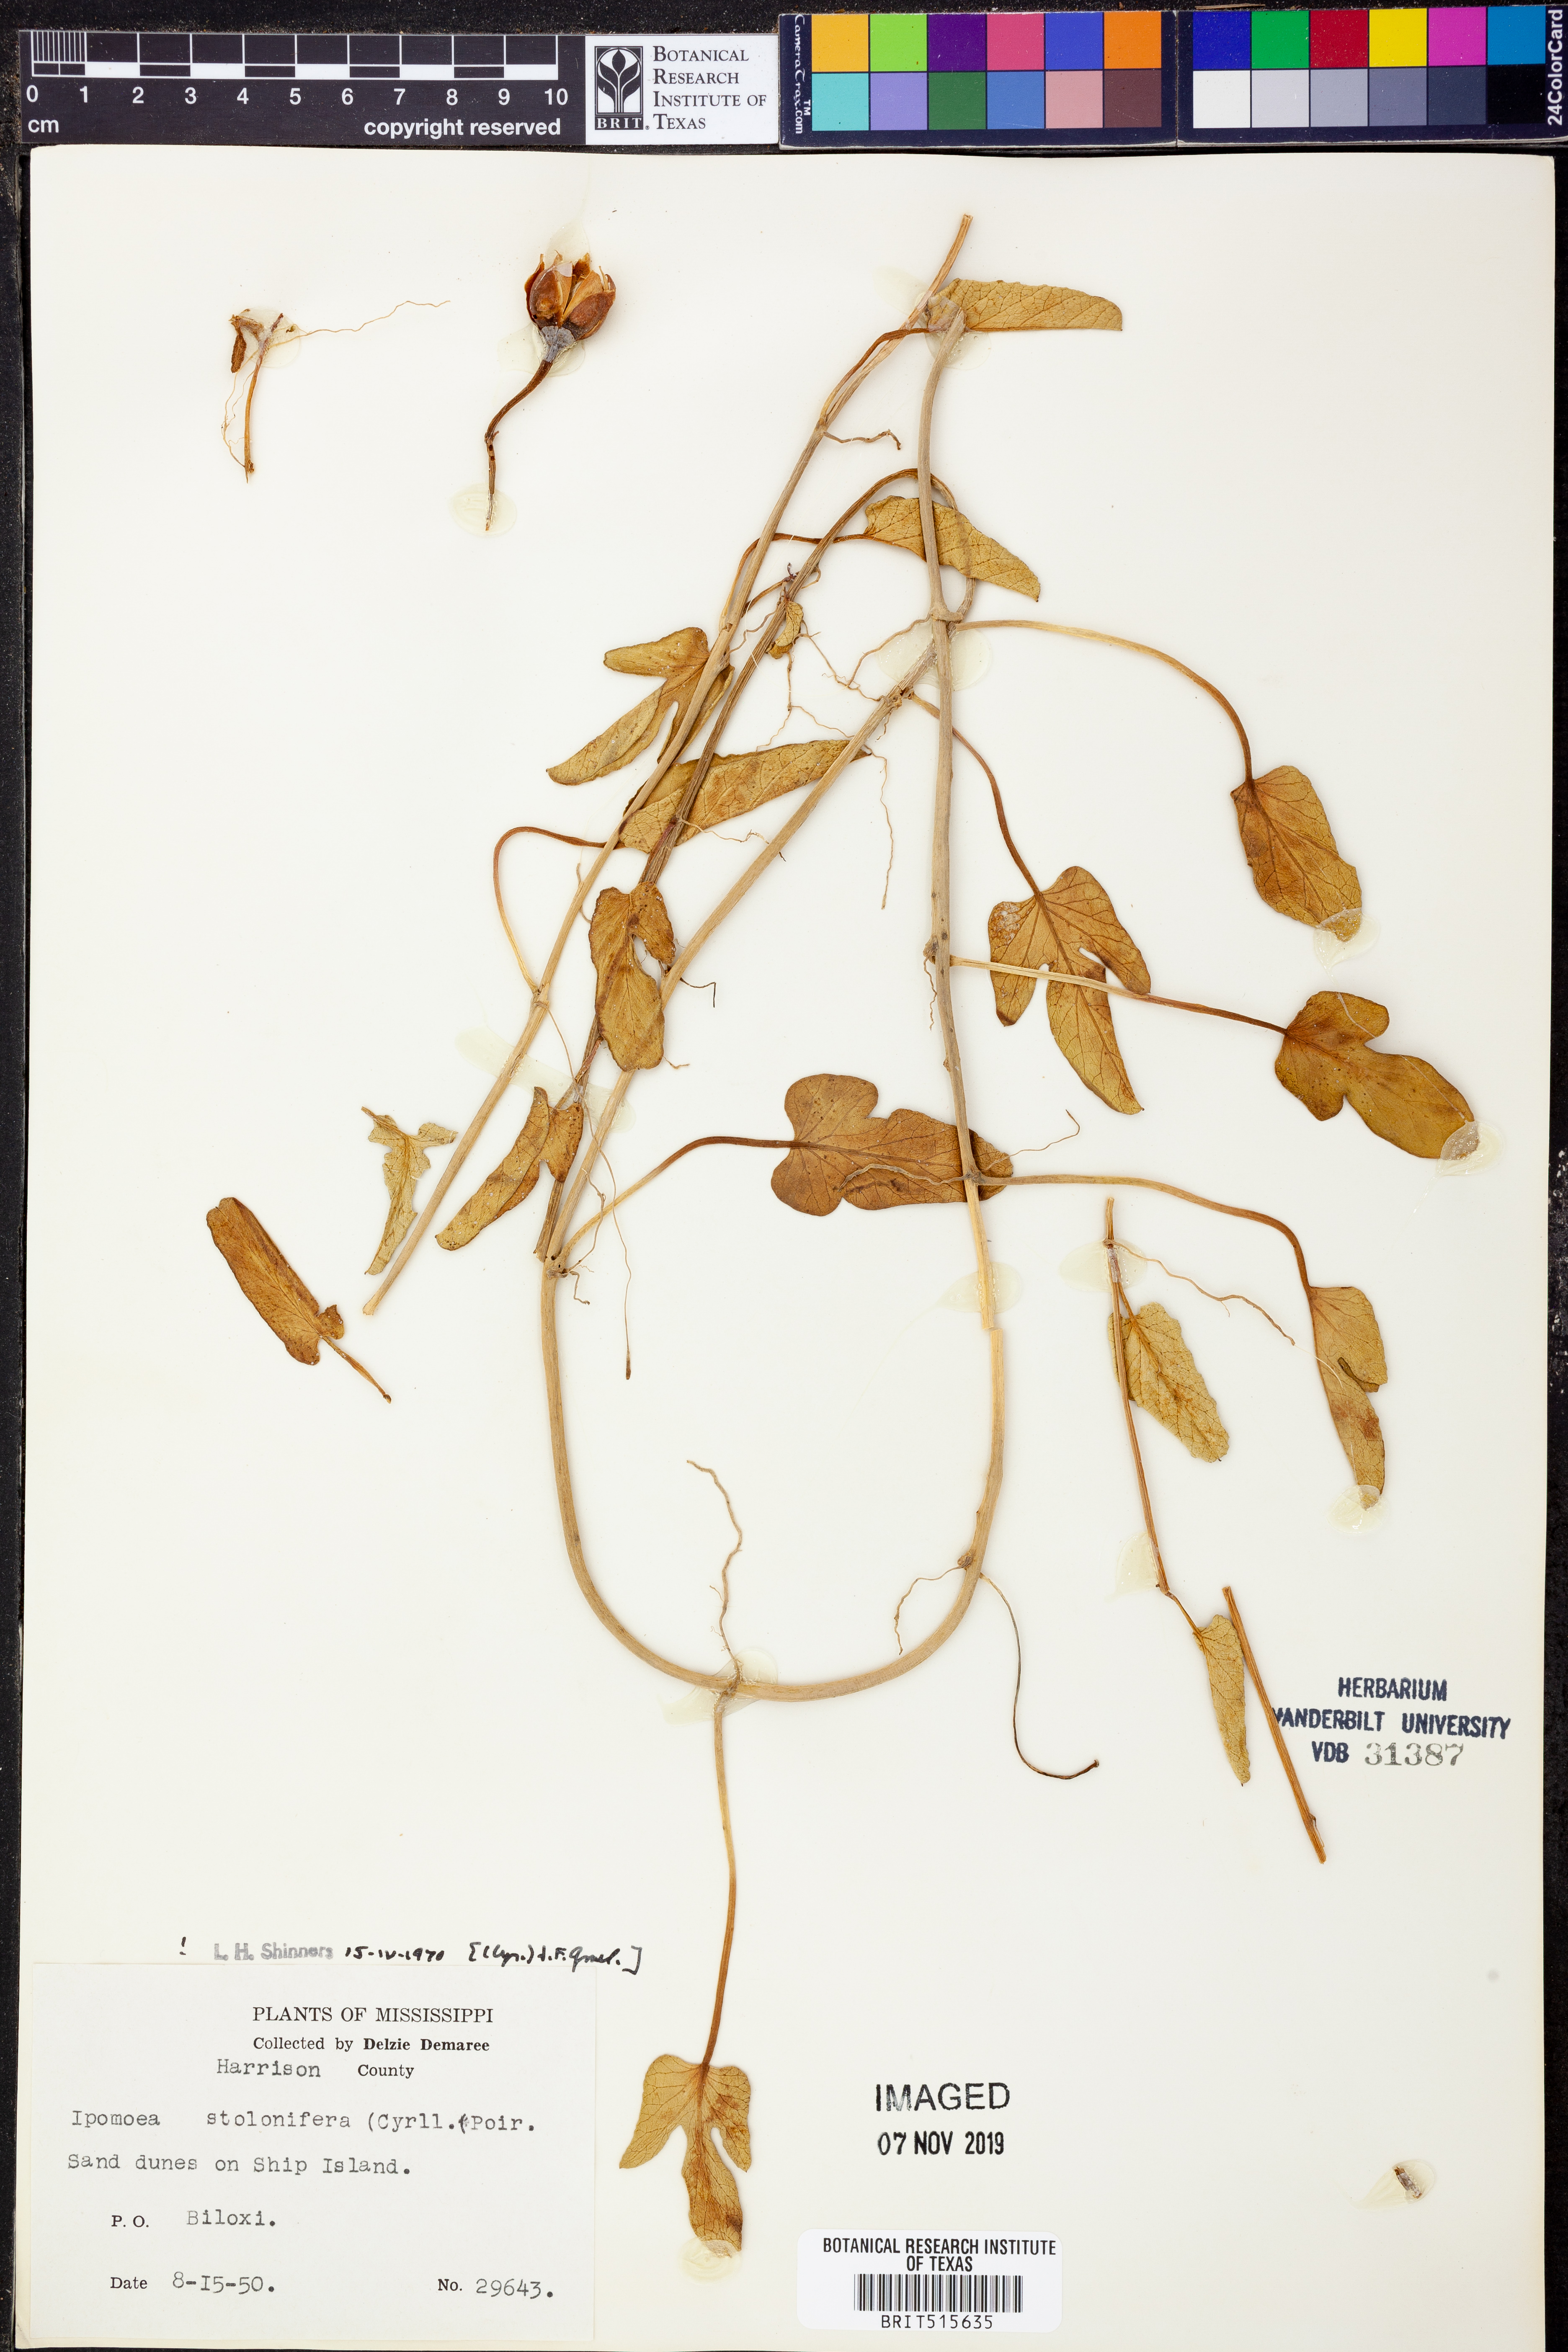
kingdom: Plantae
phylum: Tracheophyta
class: Magnoliopsida
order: Solanales
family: Convolvulaceae
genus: Ipomoea
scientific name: Ipomoea imperati
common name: Fiddle-leaf morning-glory
